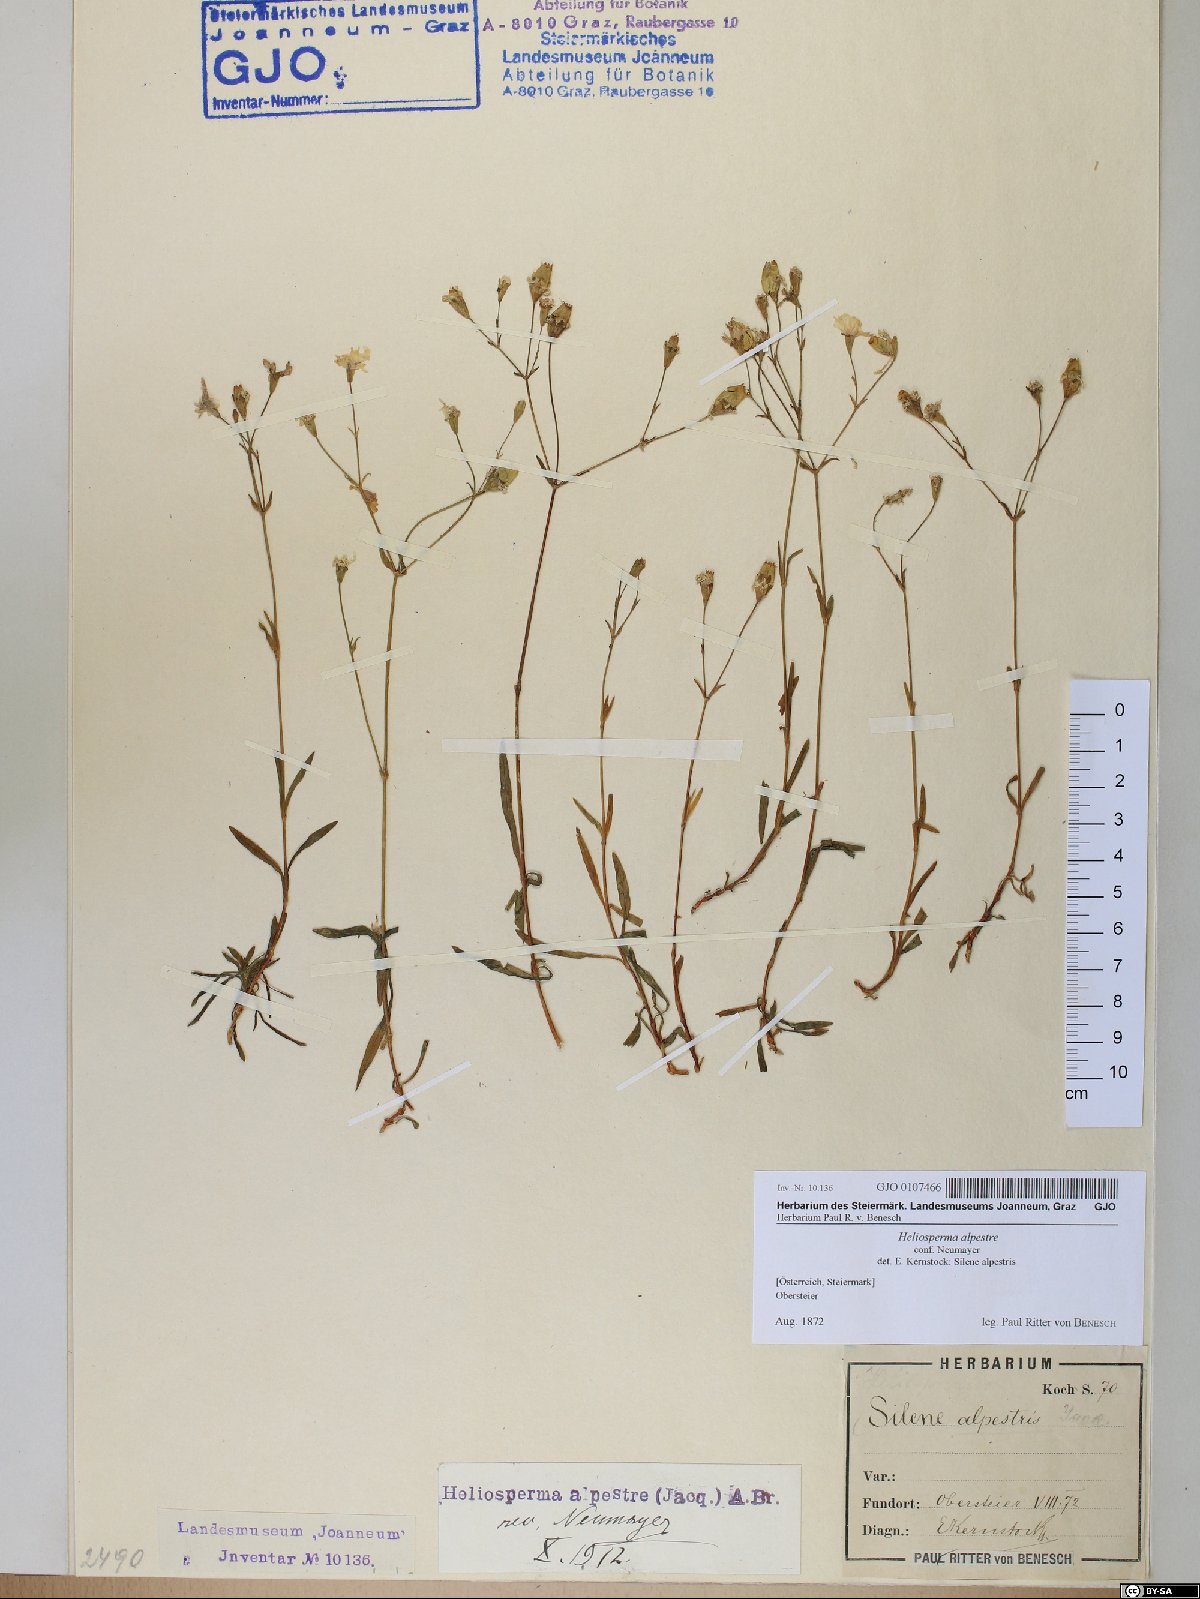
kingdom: Plantae
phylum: Tracheophyta
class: Magnoliopsida
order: Caryophyllales
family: Caryophyllaceae
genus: Heliosperma
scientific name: Heliosperma alpestre
